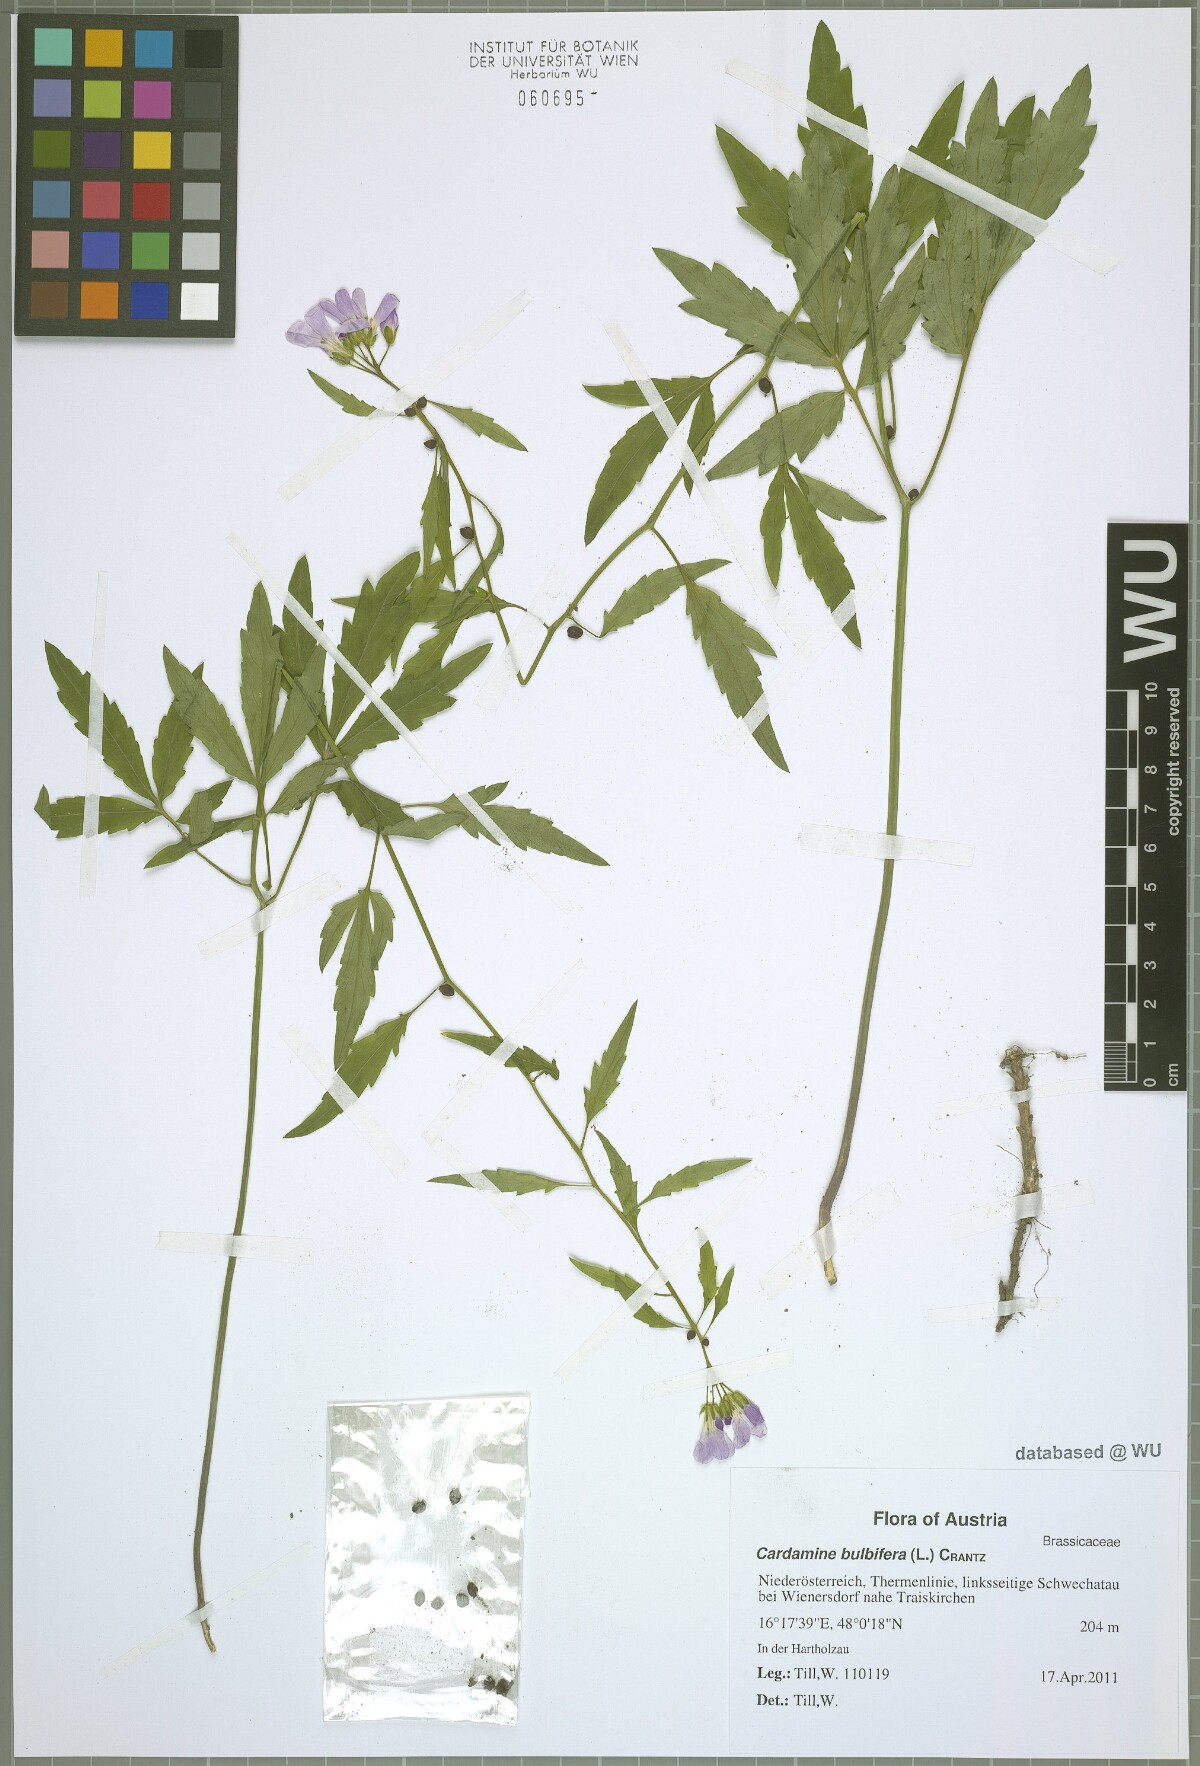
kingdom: Plantae
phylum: Tracheophyta
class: Magnoliopsida
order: Brassicales
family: Brassicaceae
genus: Cardamine
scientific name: Cardamine bulbifera
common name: Coralroot bittercress
